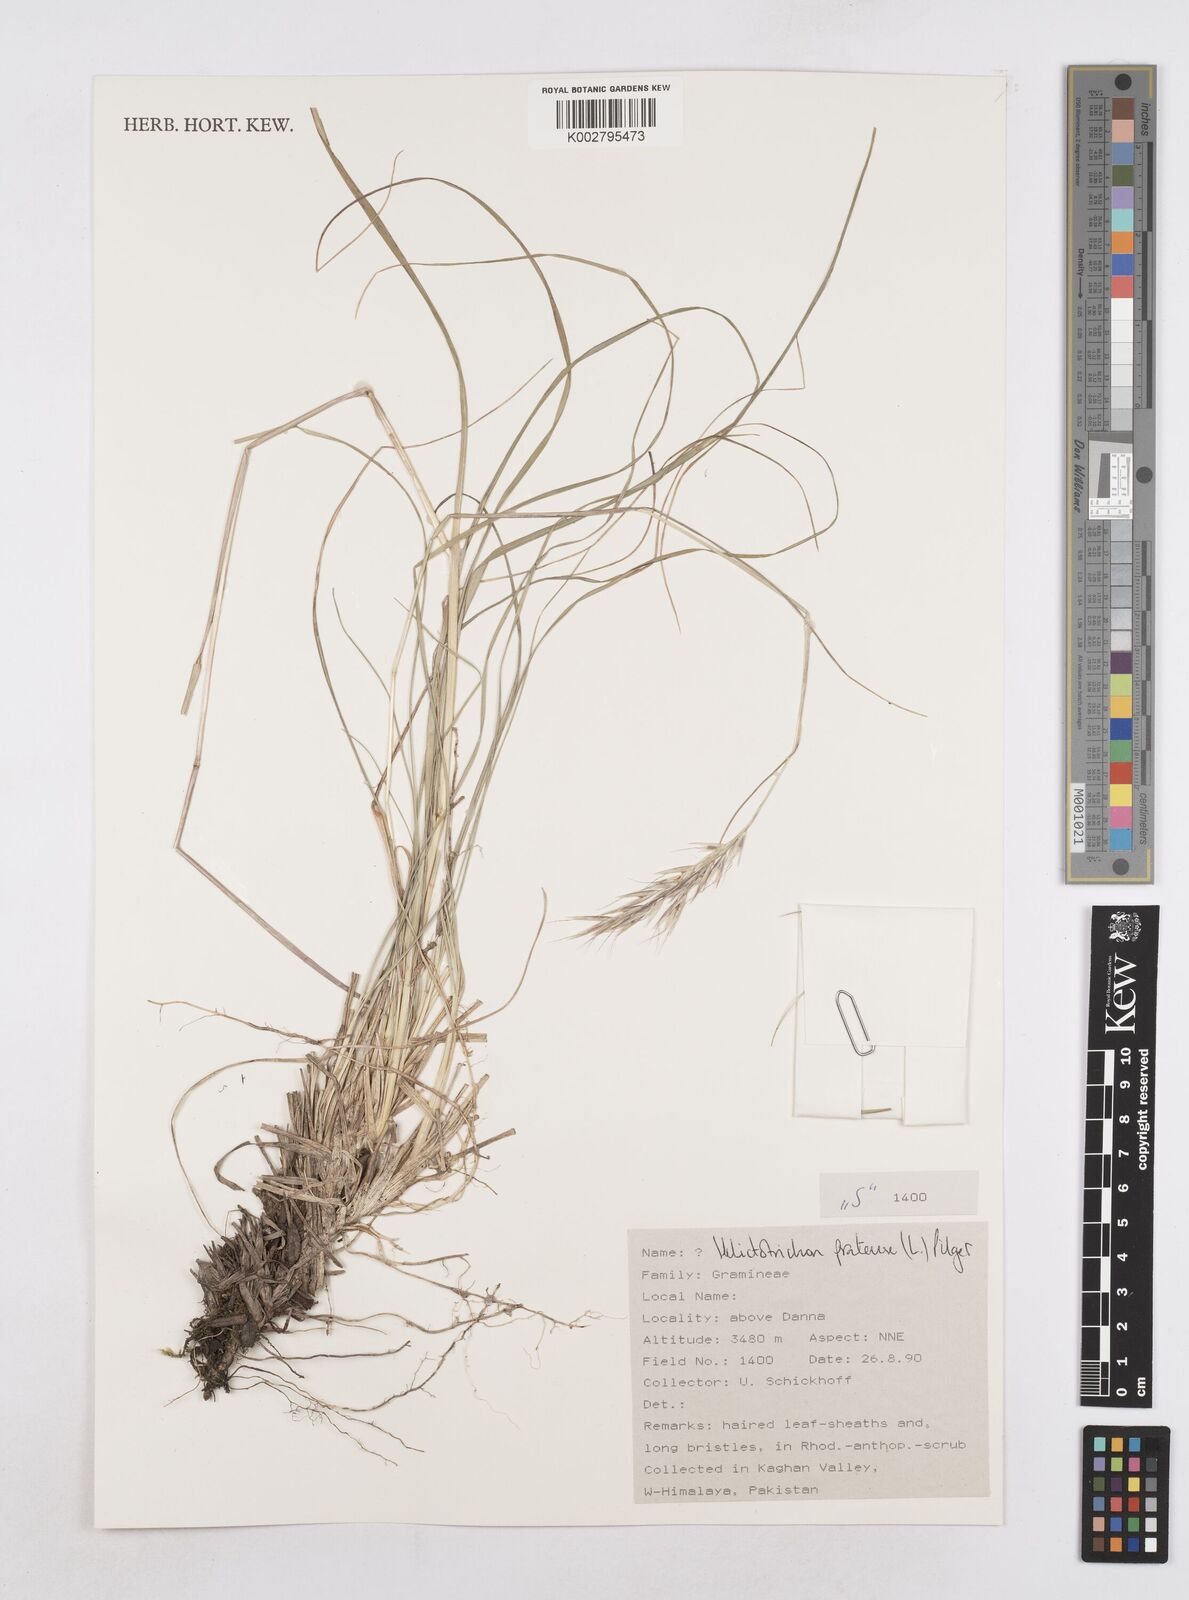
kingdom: Plantae
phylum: Tracheophyta
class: Liliopsida
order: Poales
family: Poaceae
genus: Helictochloa
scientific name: Helictochloa pratensis
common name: Meadow oat grass
